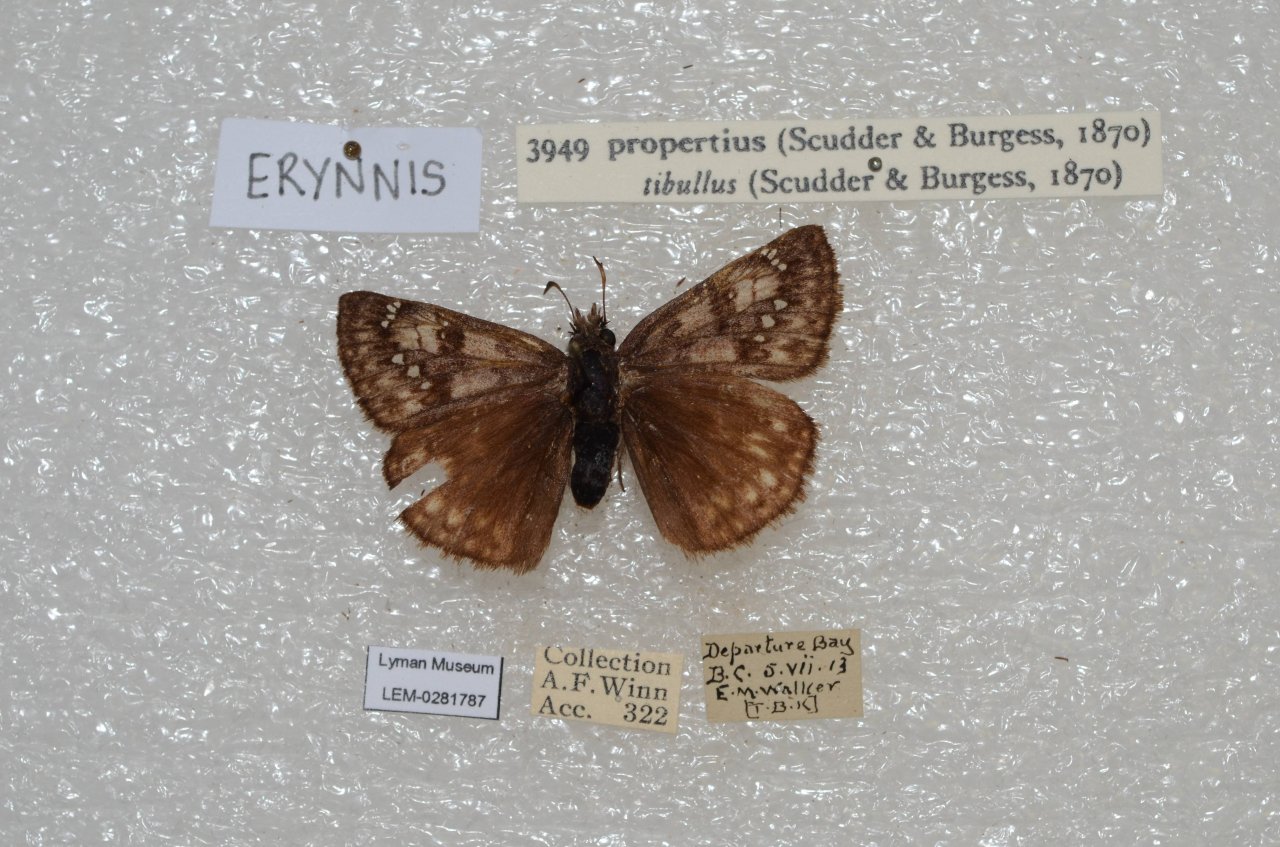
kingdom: Animalia
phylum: Arthropoda
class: Insecta
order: Lepidoptera
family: Hesperiidae
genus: Erynnis
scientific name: Erynnis propertius
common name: Propertius Duskywing
